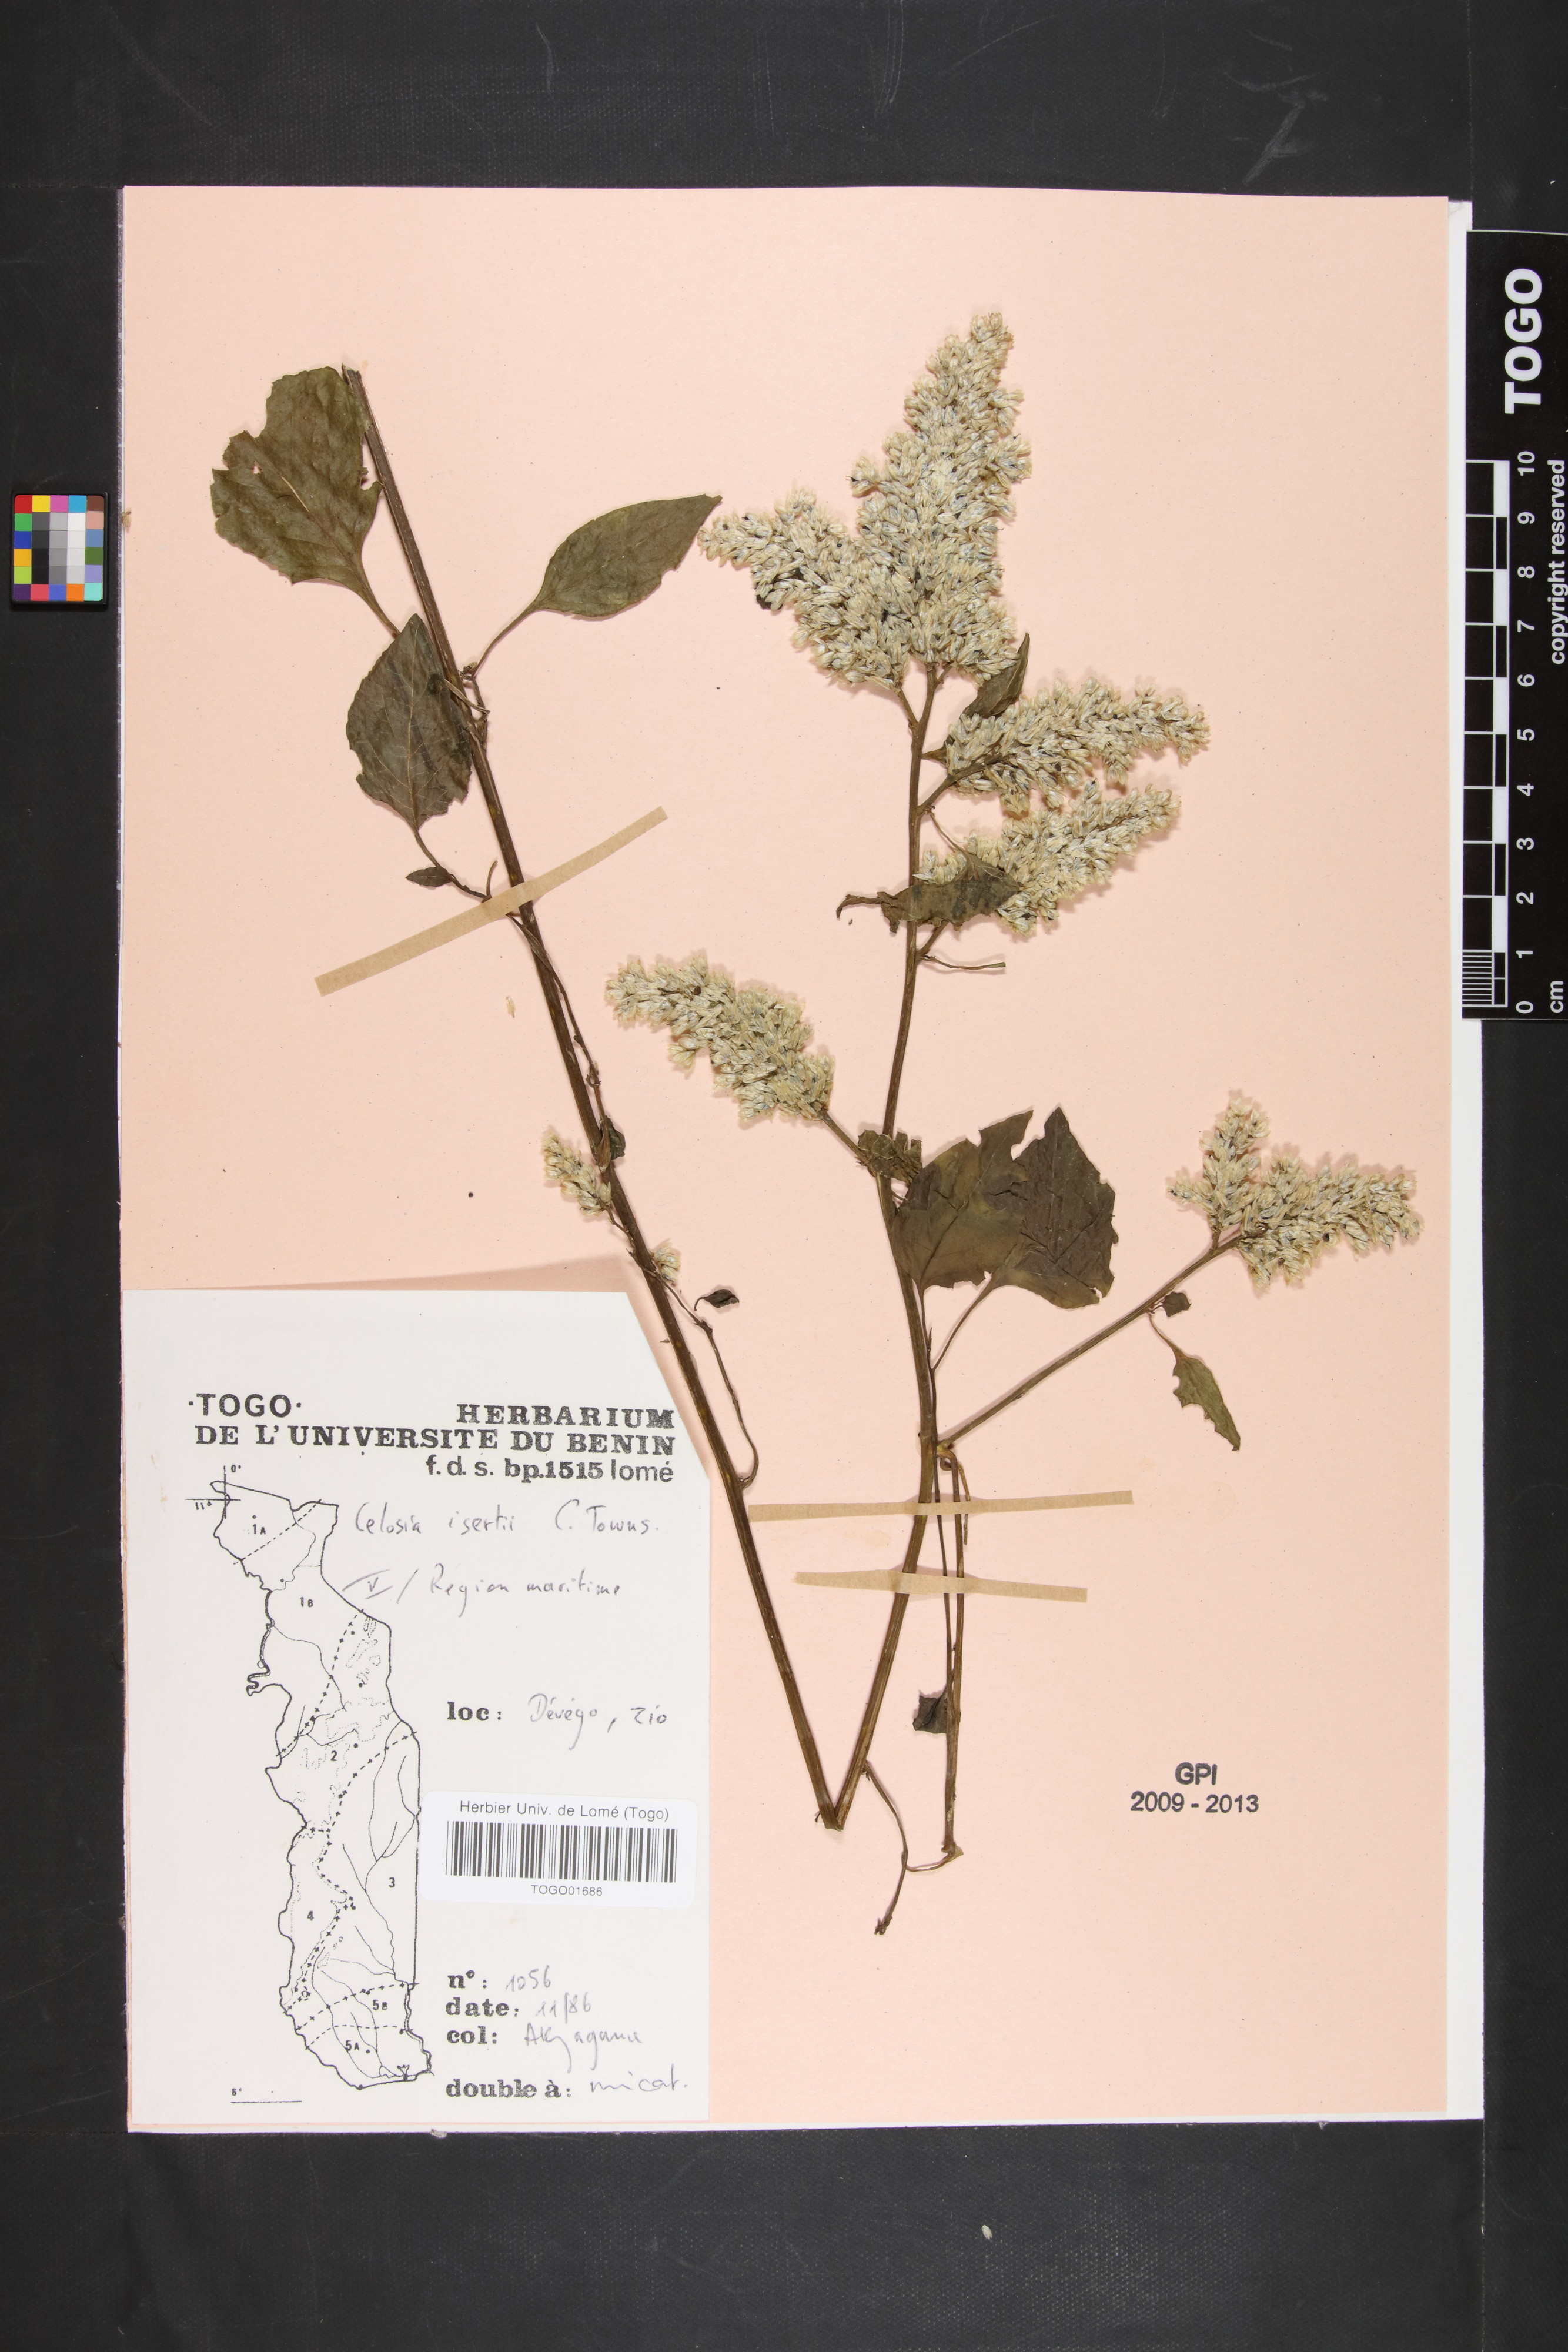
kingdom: Plantae
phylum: Tracheophyta
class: Magnoliopsida
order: Caryophyllales
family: Amaranthaceae
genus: Celosia
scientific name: Celosia isertii
